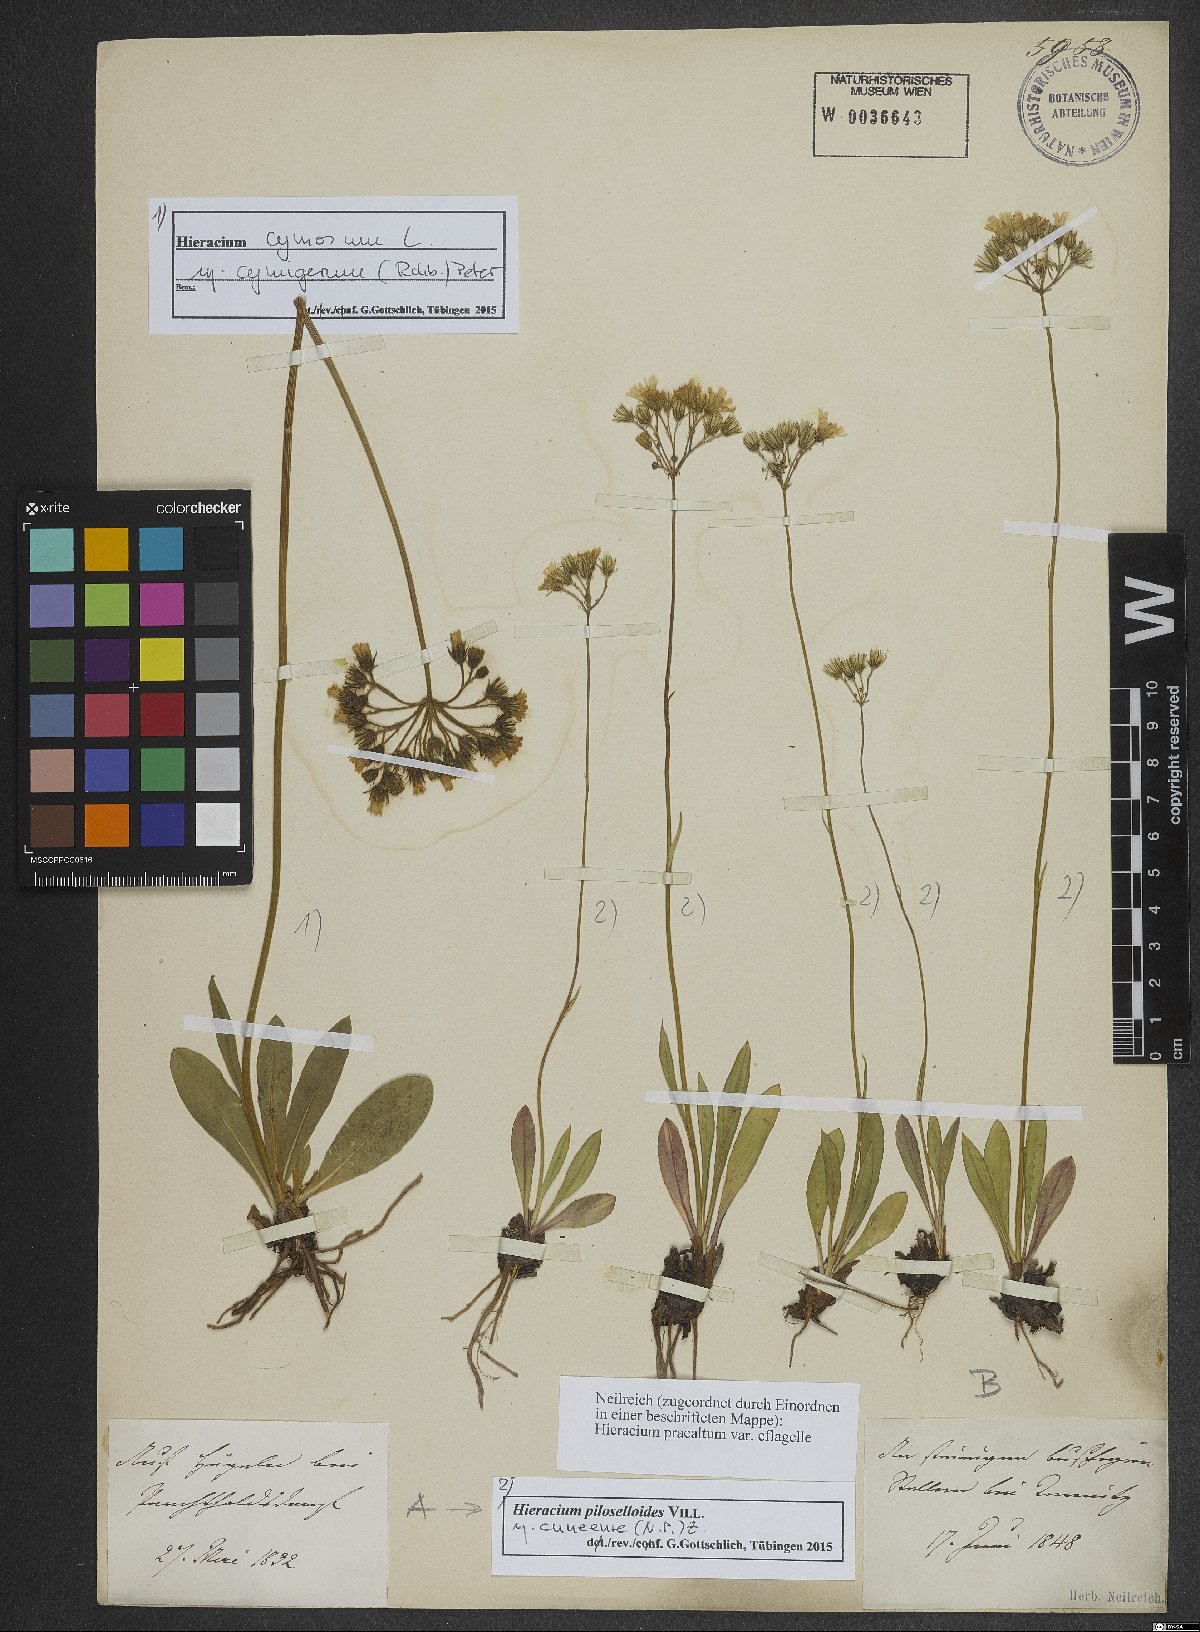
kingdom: Plantae
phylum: Tracheophyta
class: Magnoliopsida
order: Asterales
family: Asteraceae
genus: Pilosella
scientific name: Pilosella piloselloides
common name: Glaucous king-devil
